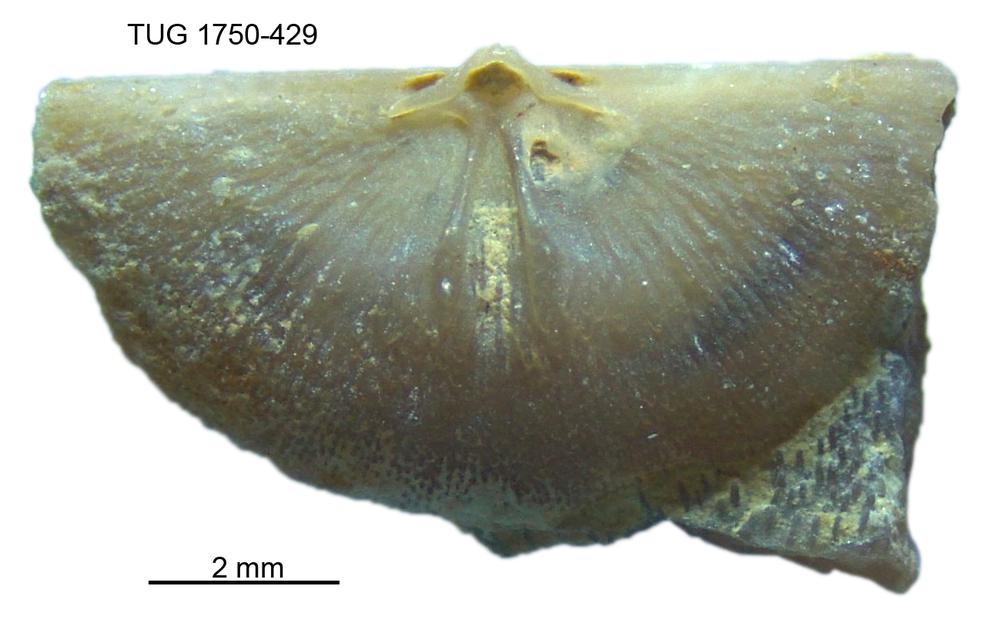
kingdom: Animalia
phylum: Brachiopoda
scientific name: Brachiopoda
